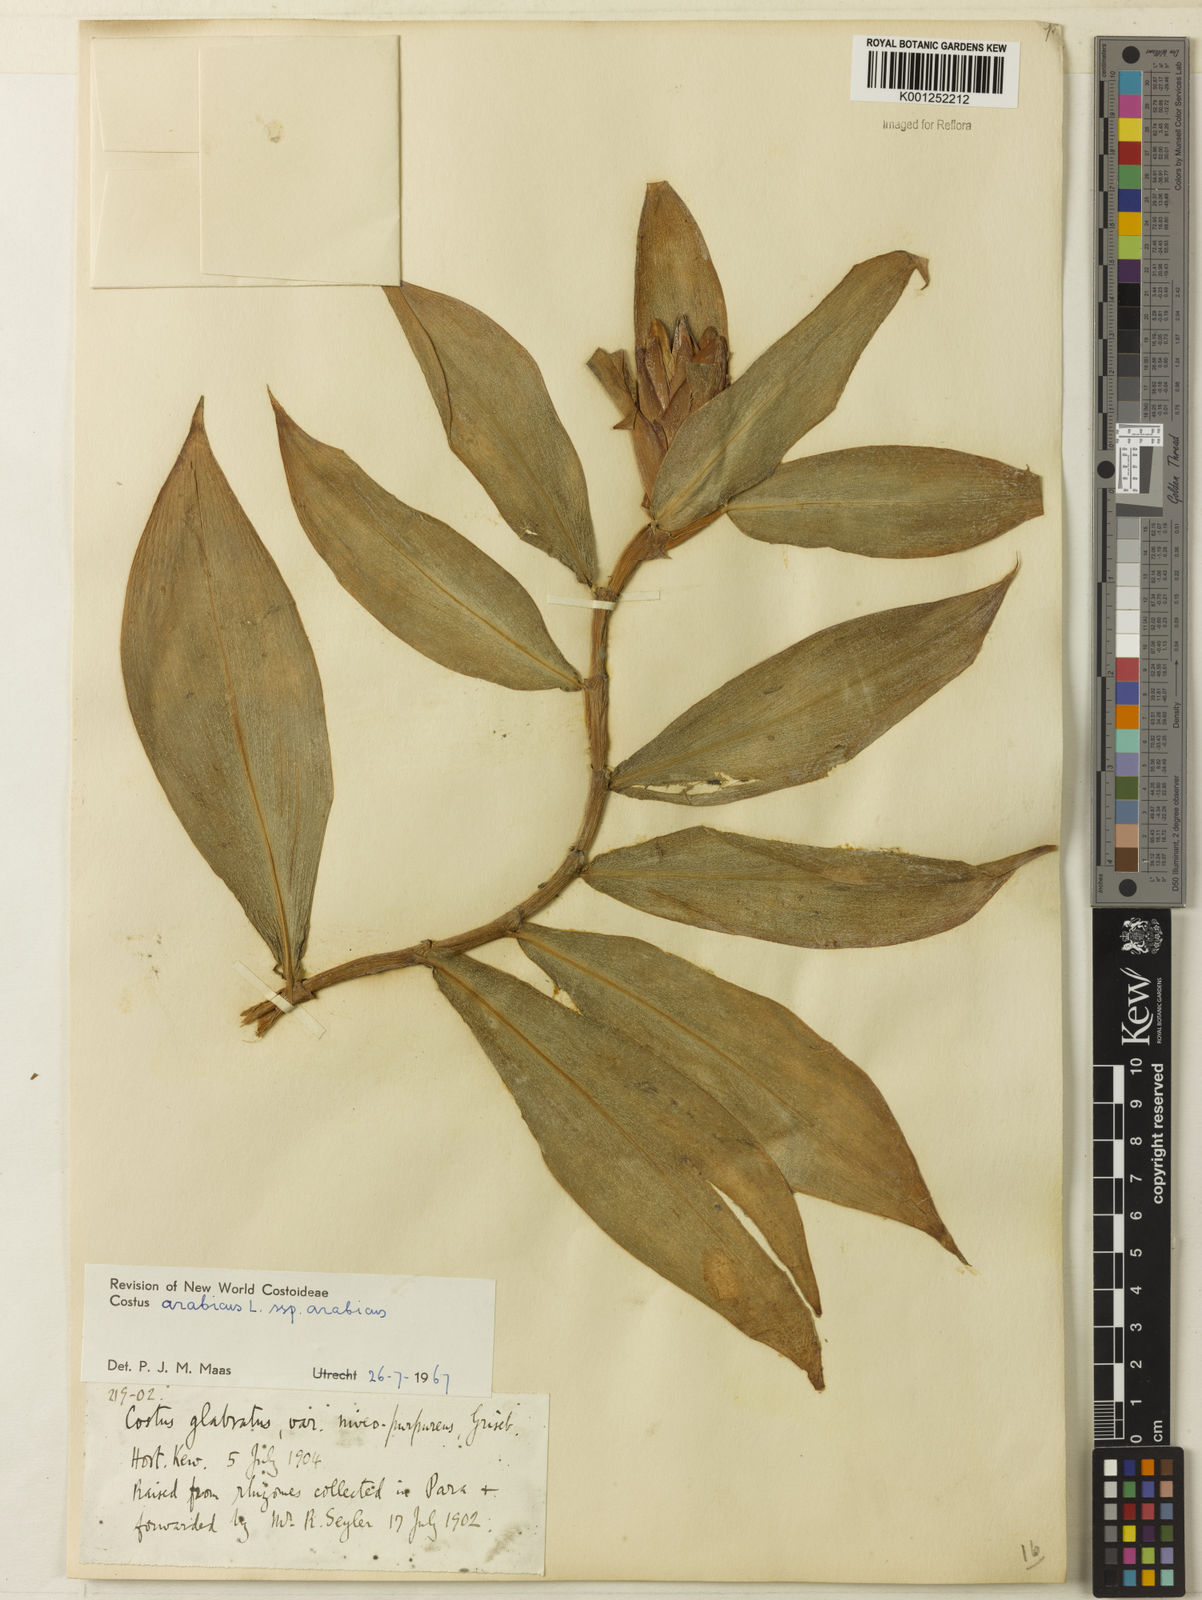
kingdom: Plantae
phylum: Tracheophyta
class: Liliopsida
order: Zingiberales
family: Costaceae
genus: Costus
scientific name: Costus arabicus
